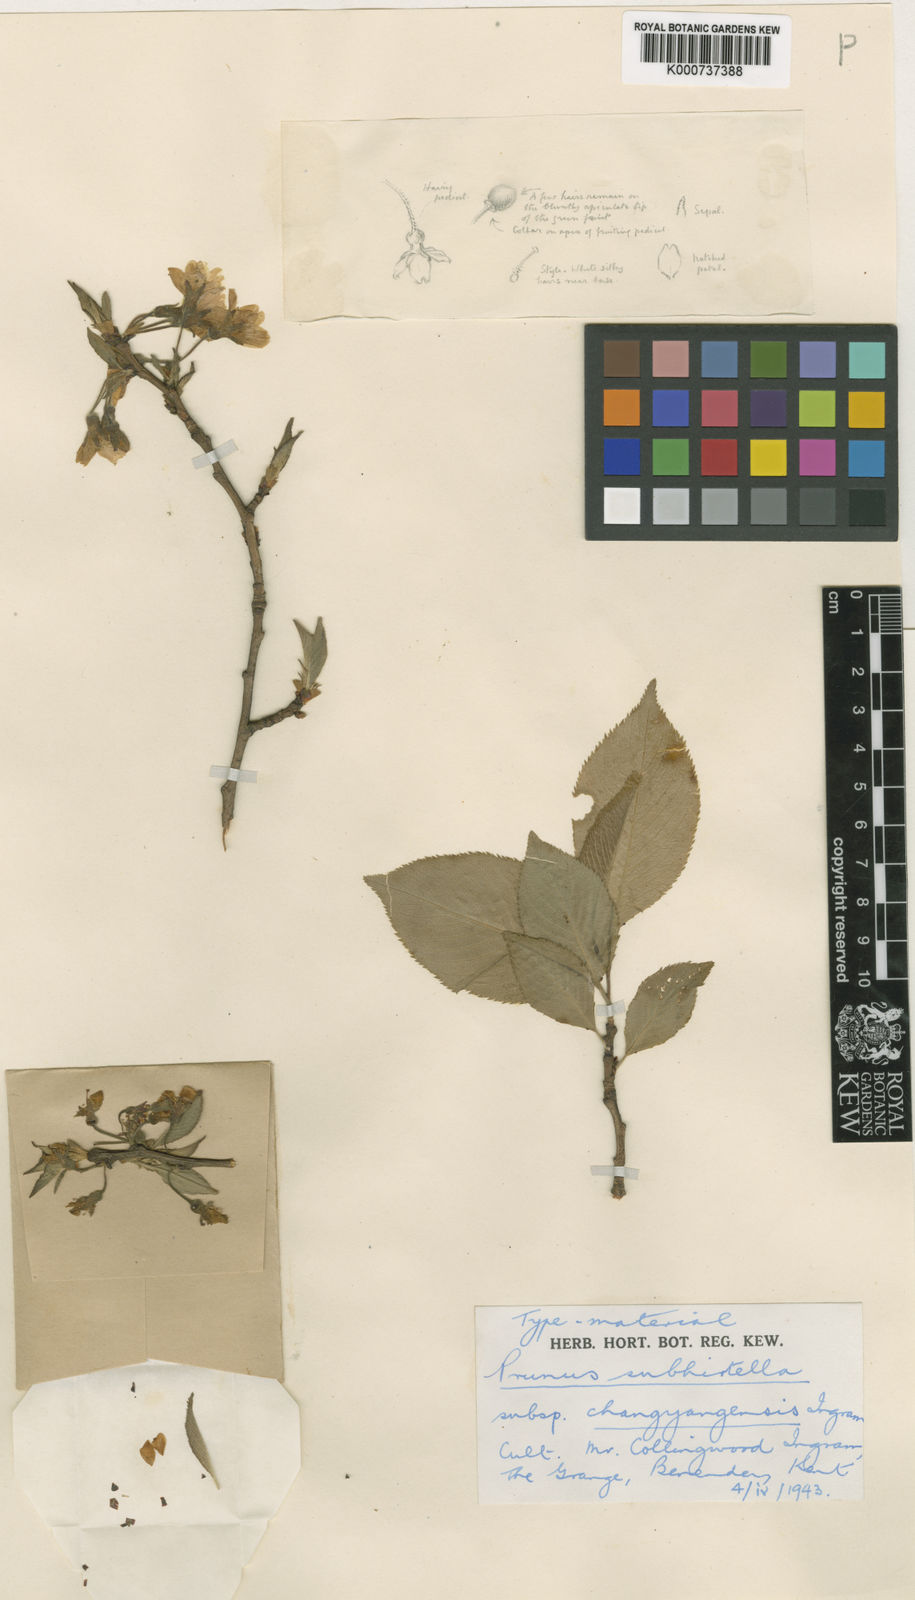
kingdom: Plantae
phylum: Tracheophyta
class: Magnoliopsida
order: Rosales
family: Rosaceae
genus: Prunus
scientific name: Prunus
